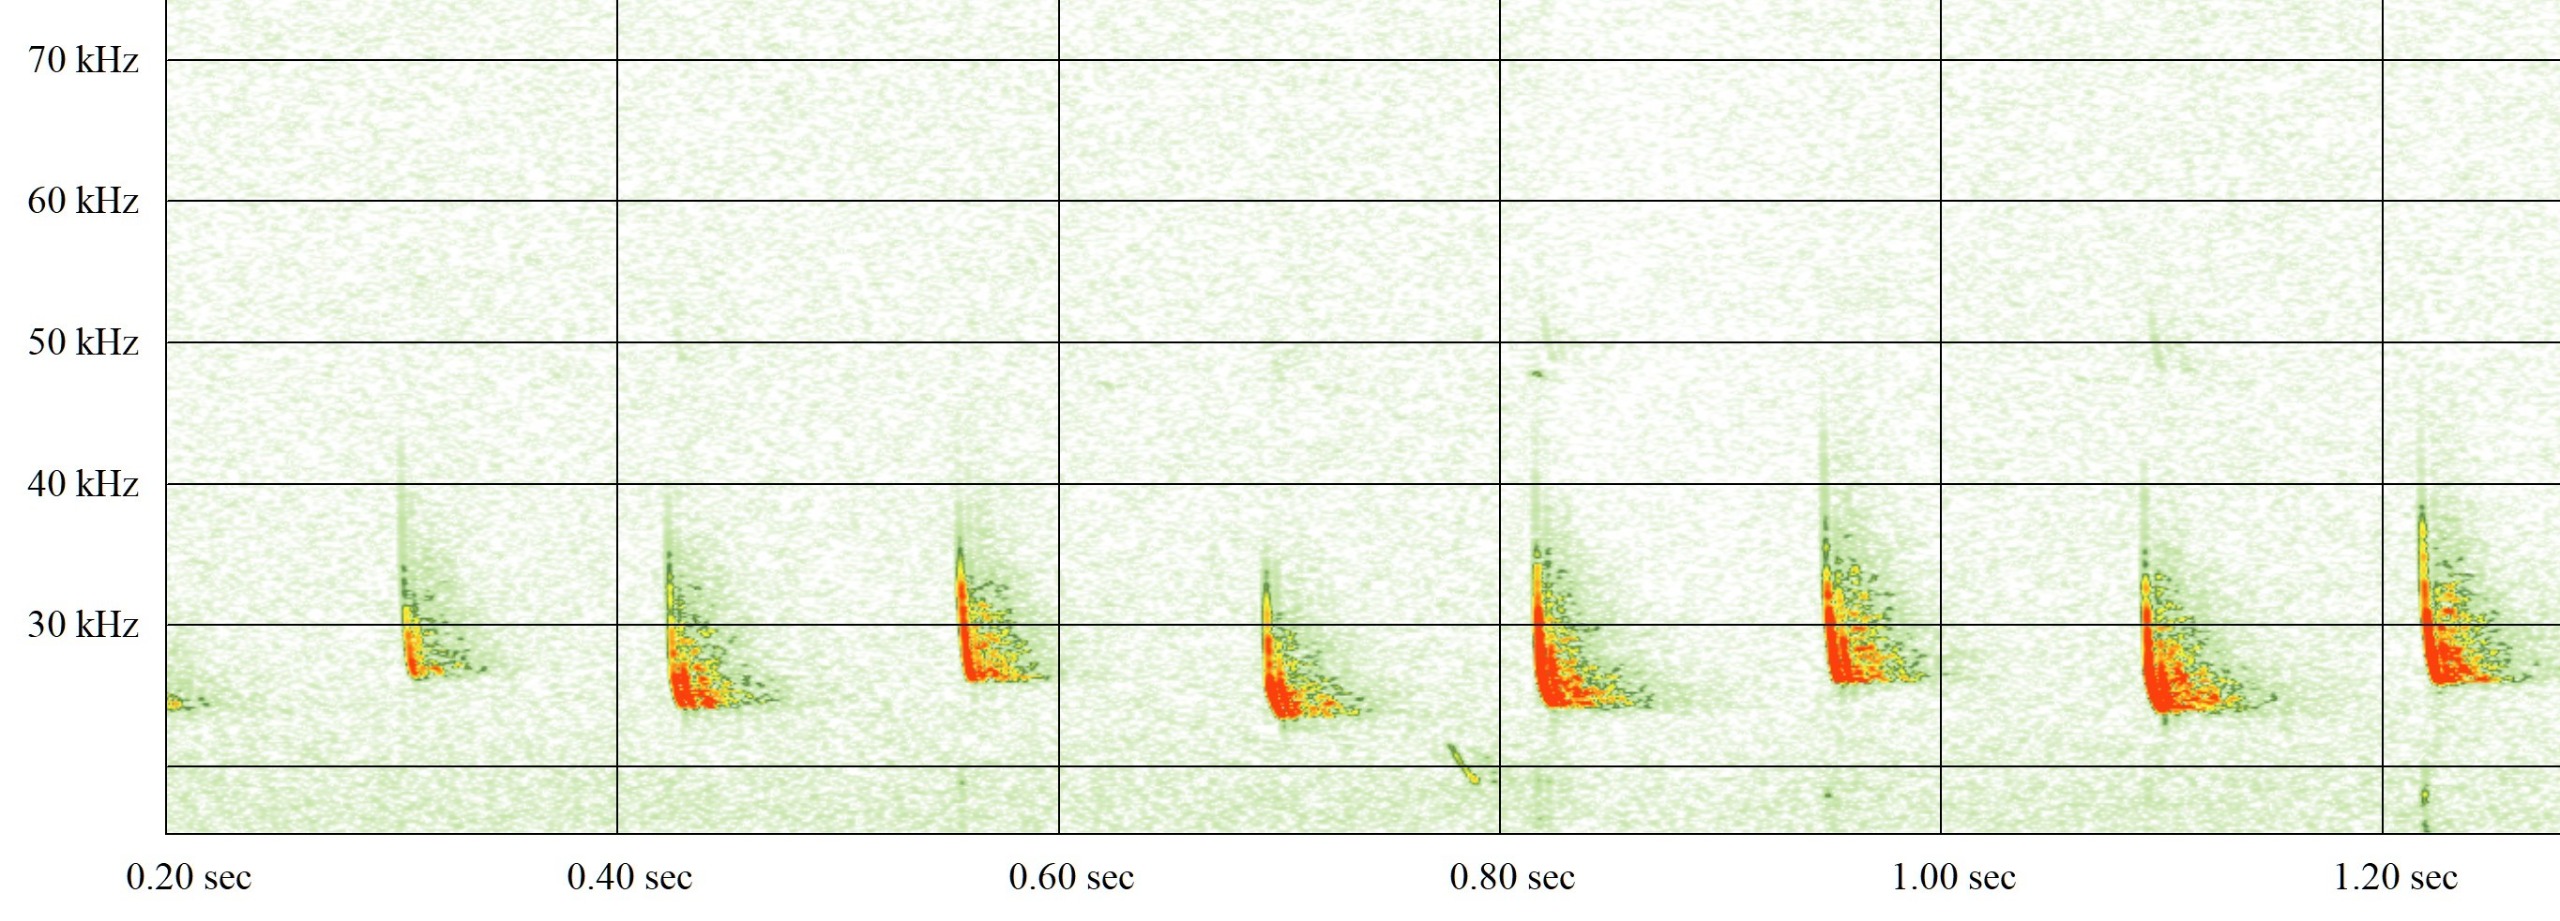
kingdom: Animalia
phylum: Chordata
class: Mammalia
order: Chiroptera
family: Vespertilionidae
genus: Eptesicus
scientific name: Eptesicus serotinus
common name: Sydflagermus
